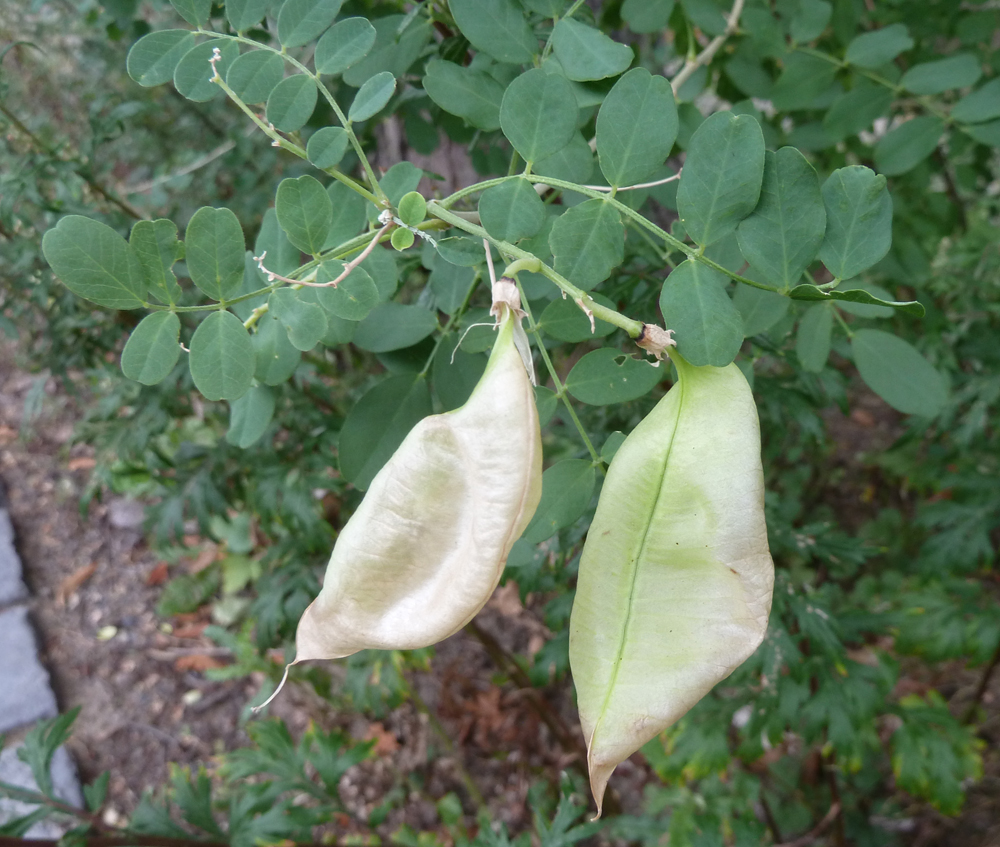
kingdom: Plantae
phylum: Tracheophyta
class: Magnoliopsida
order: Fabales
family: Fabaceae
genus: Colutea
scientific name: Colutea arborescens
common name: Bladder-senna
